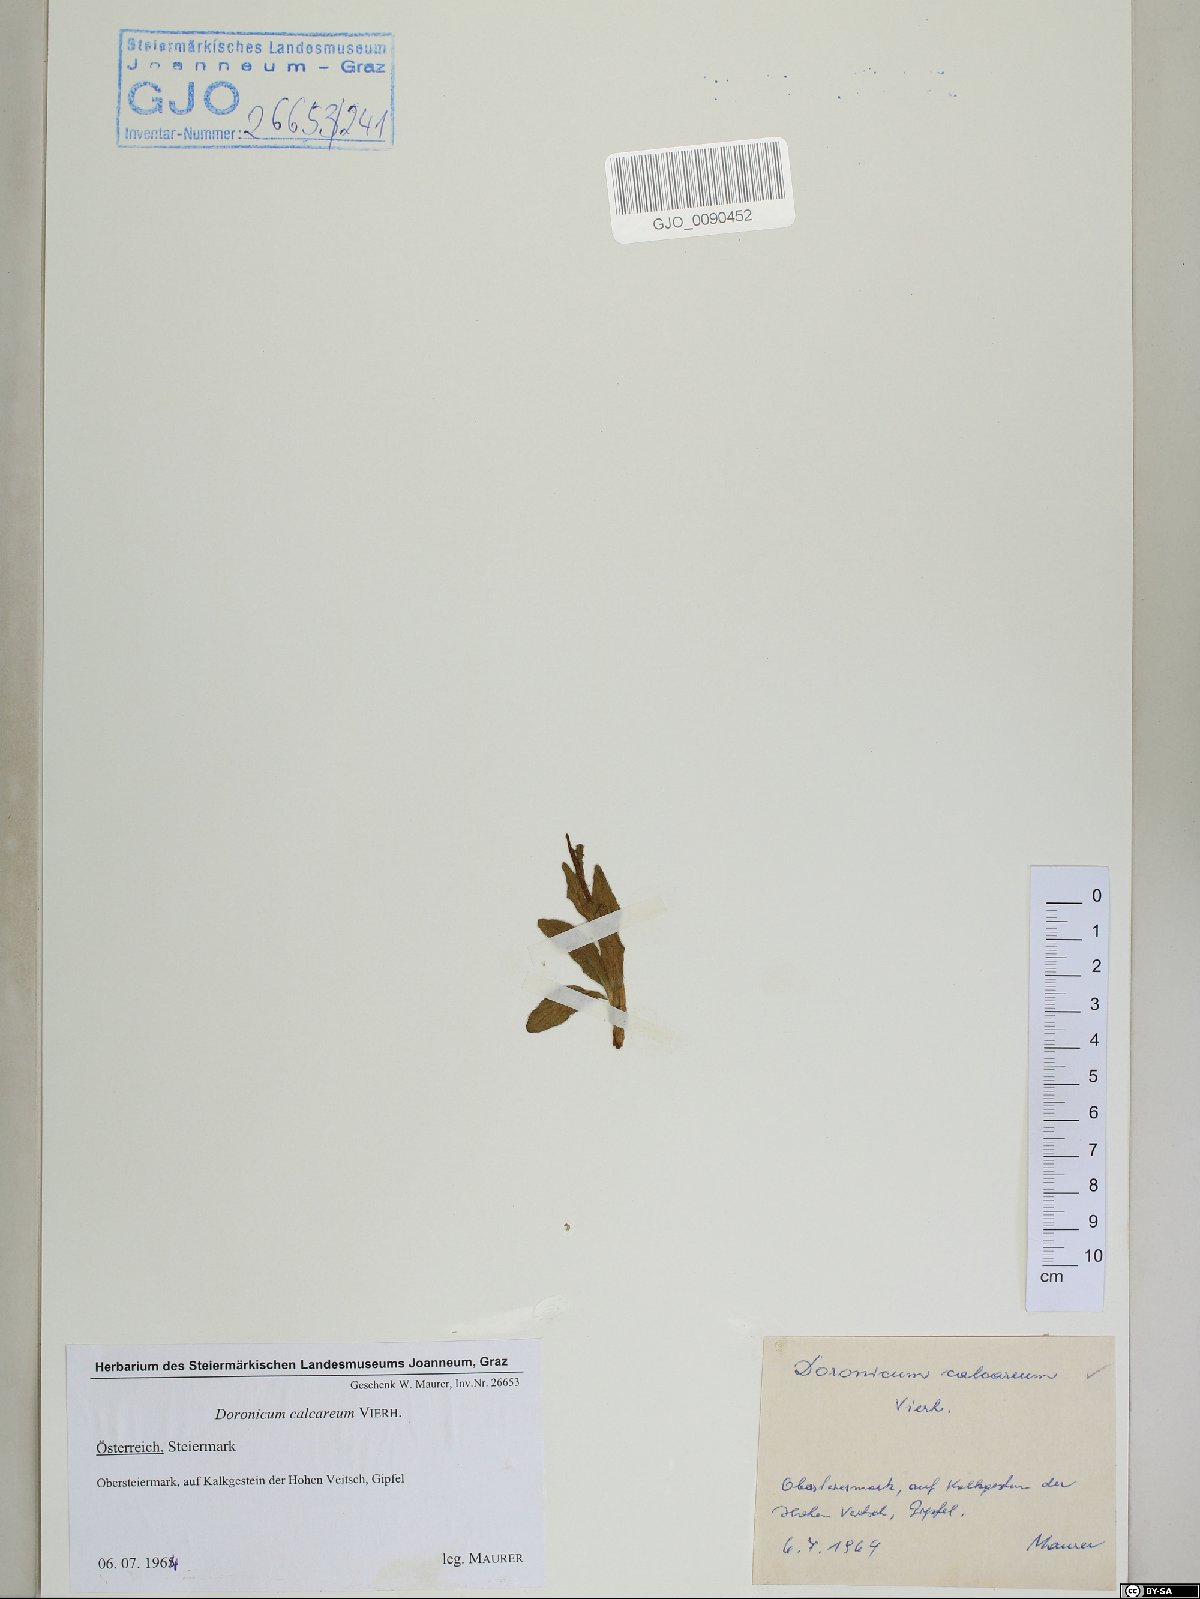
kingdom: Plantae
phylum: Tracheophyta
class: Magnoliopsida
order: Asterales
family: Asteraceae
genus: Doronicum
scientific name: Doronicum glaciale
